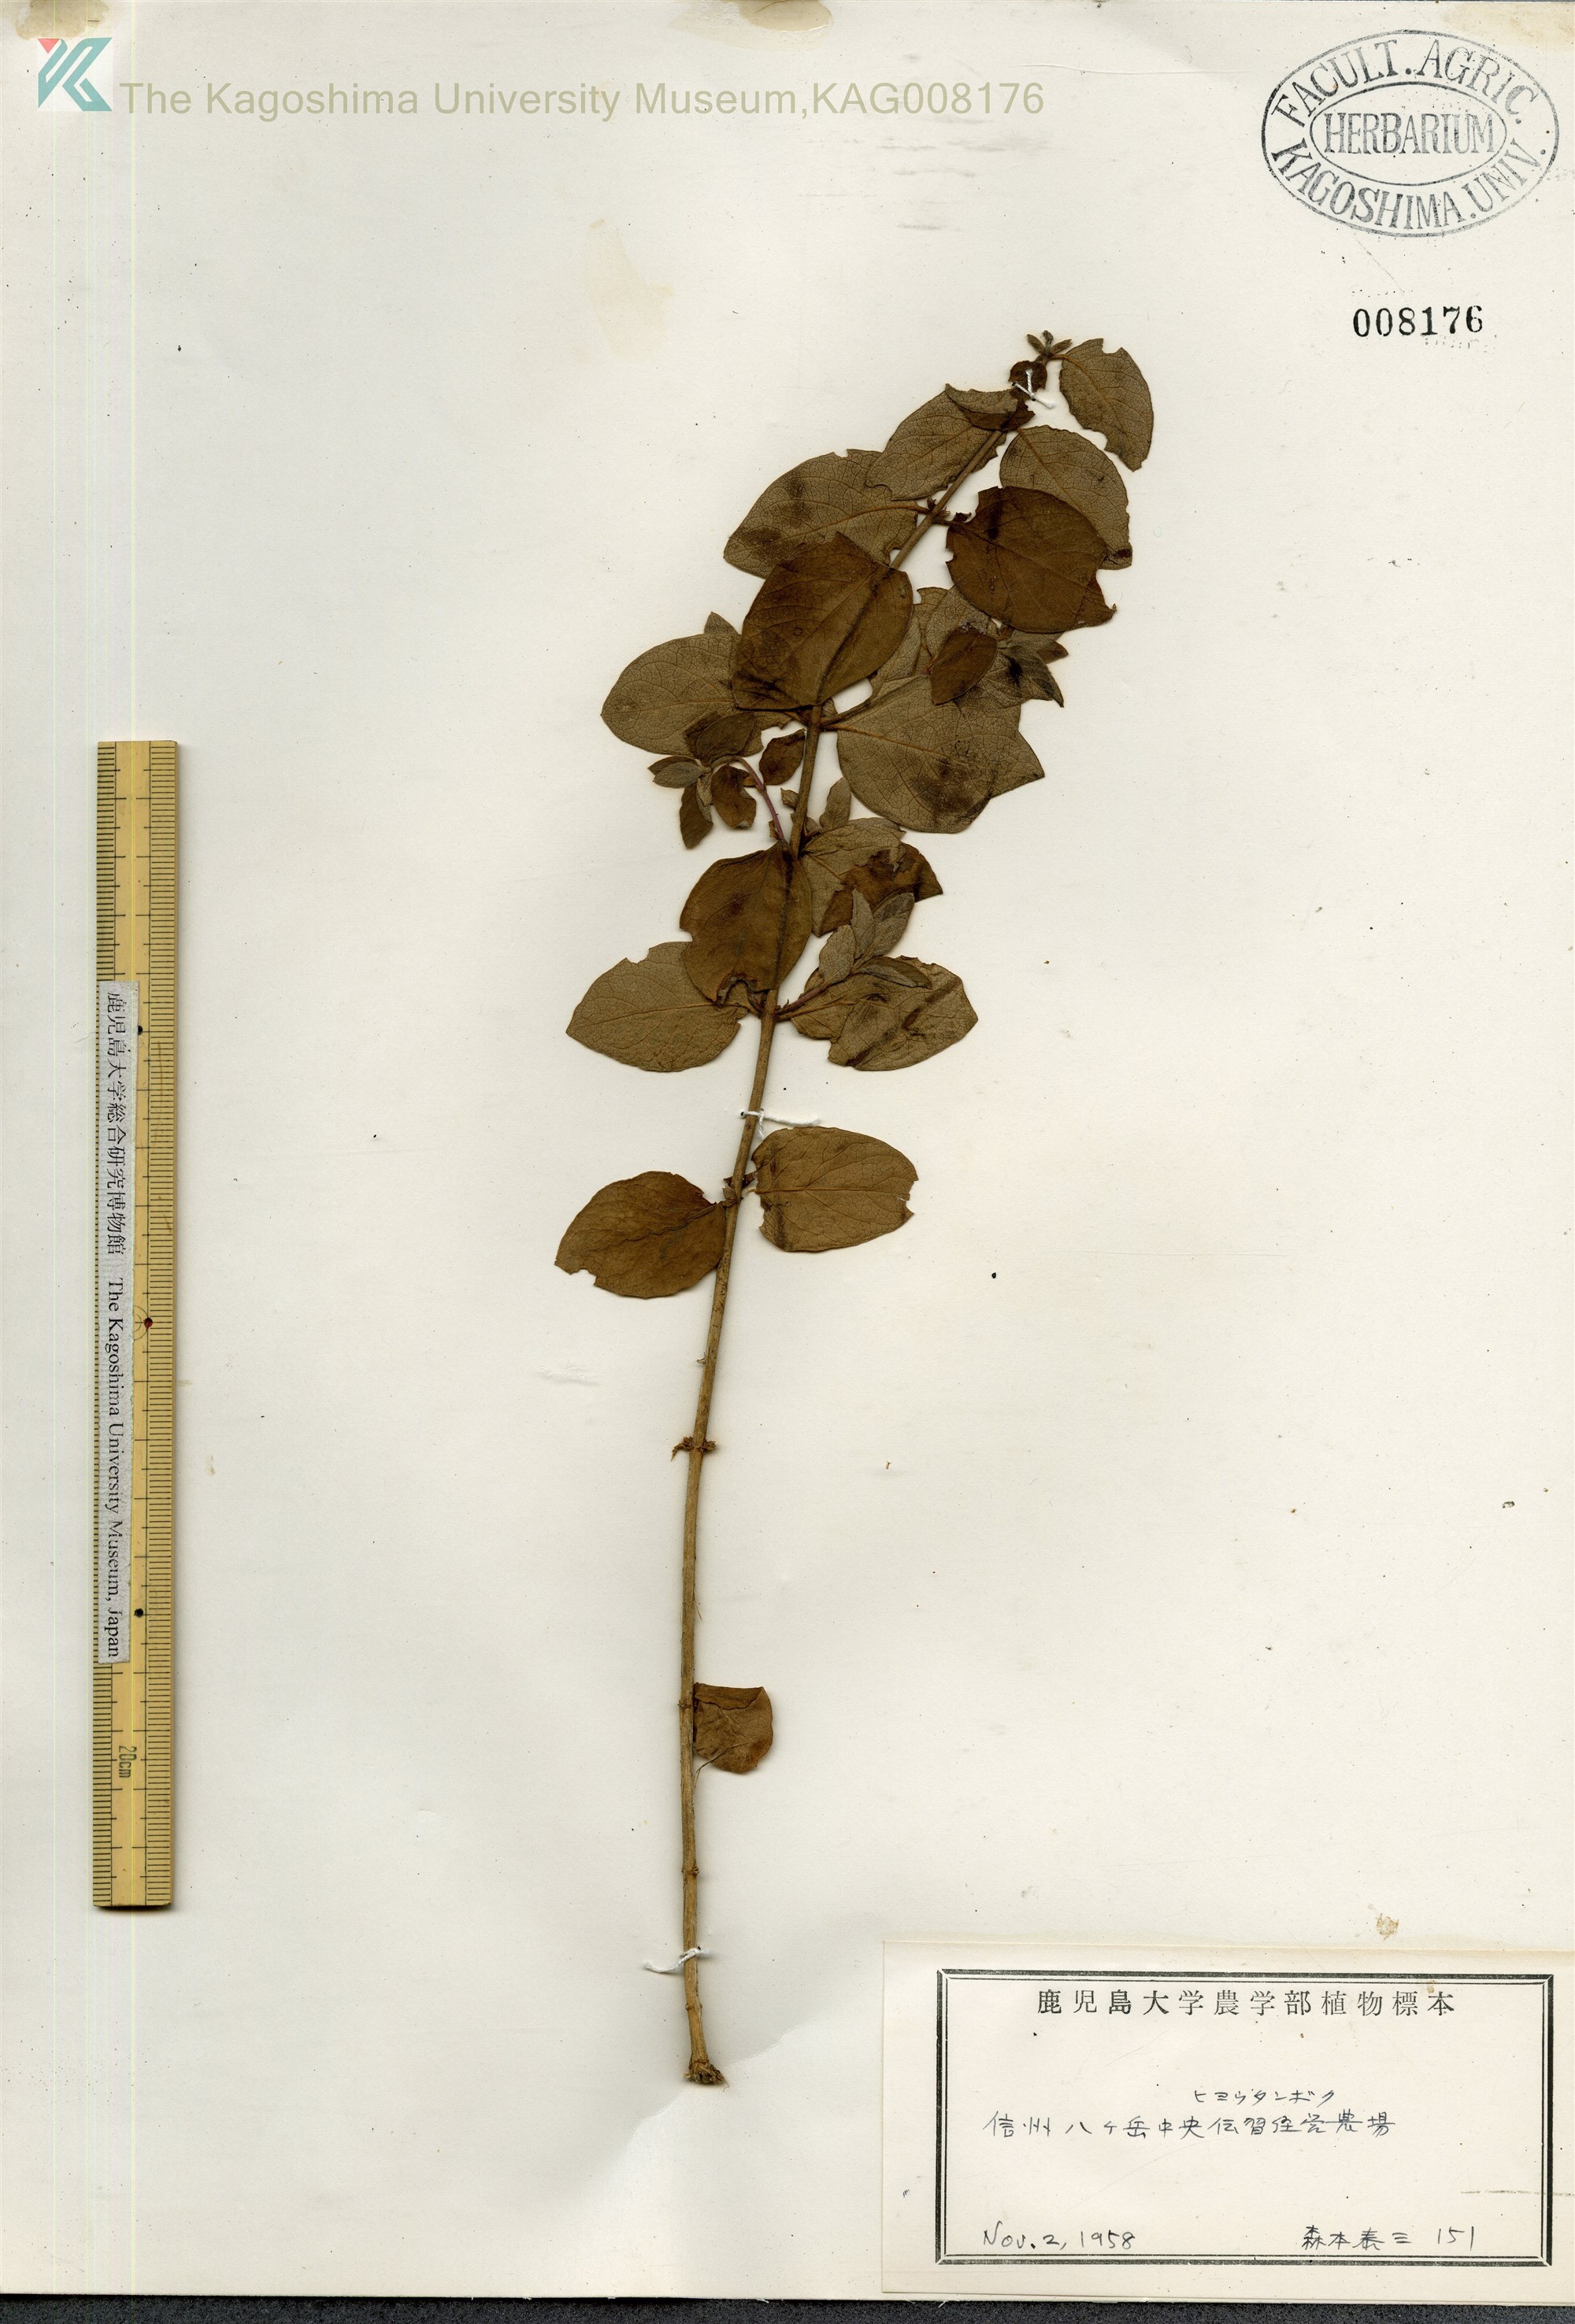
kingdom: Plantae
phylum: Tracheophyta
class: Magnoliopsida
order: Dipsacales
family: Caprifoliaceae
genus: Lonicera
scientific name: Lonicera morrowii
